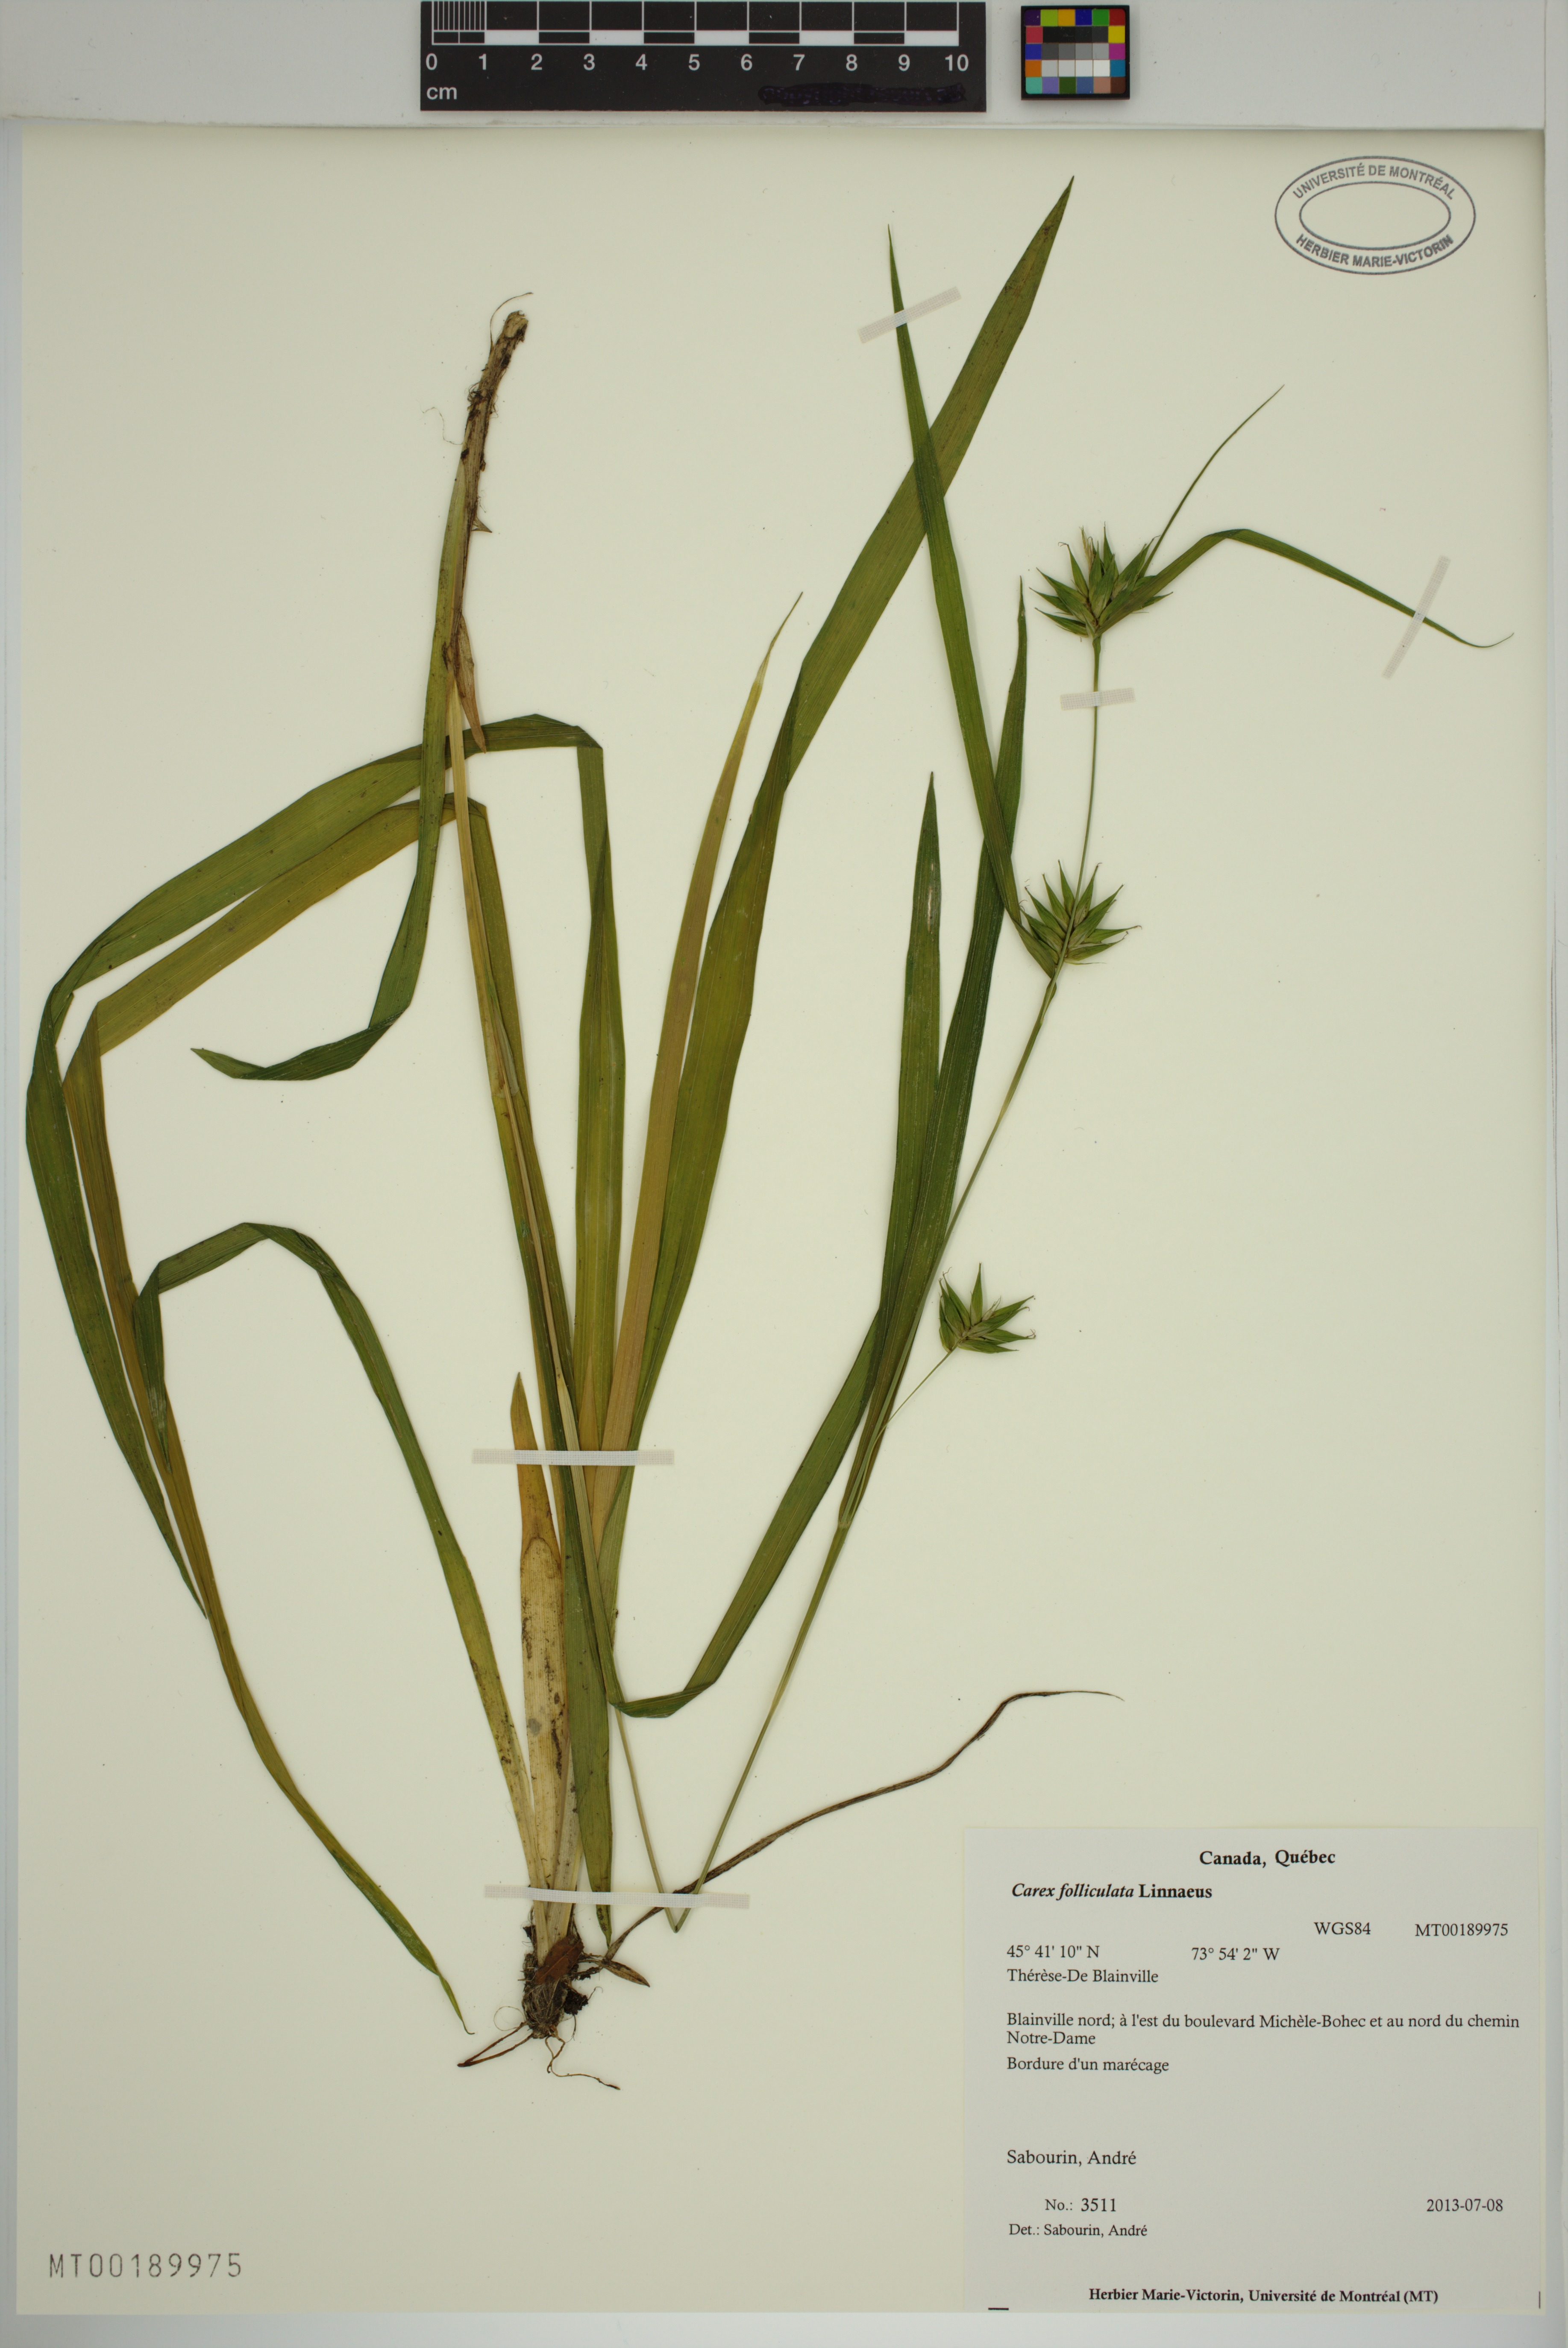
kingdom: Plantae
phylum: Tracheophyta
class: Liliopsida
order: Poales
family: Cyperaceae
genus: Carex
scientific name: Carex folliculata
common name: Northern long sedge
